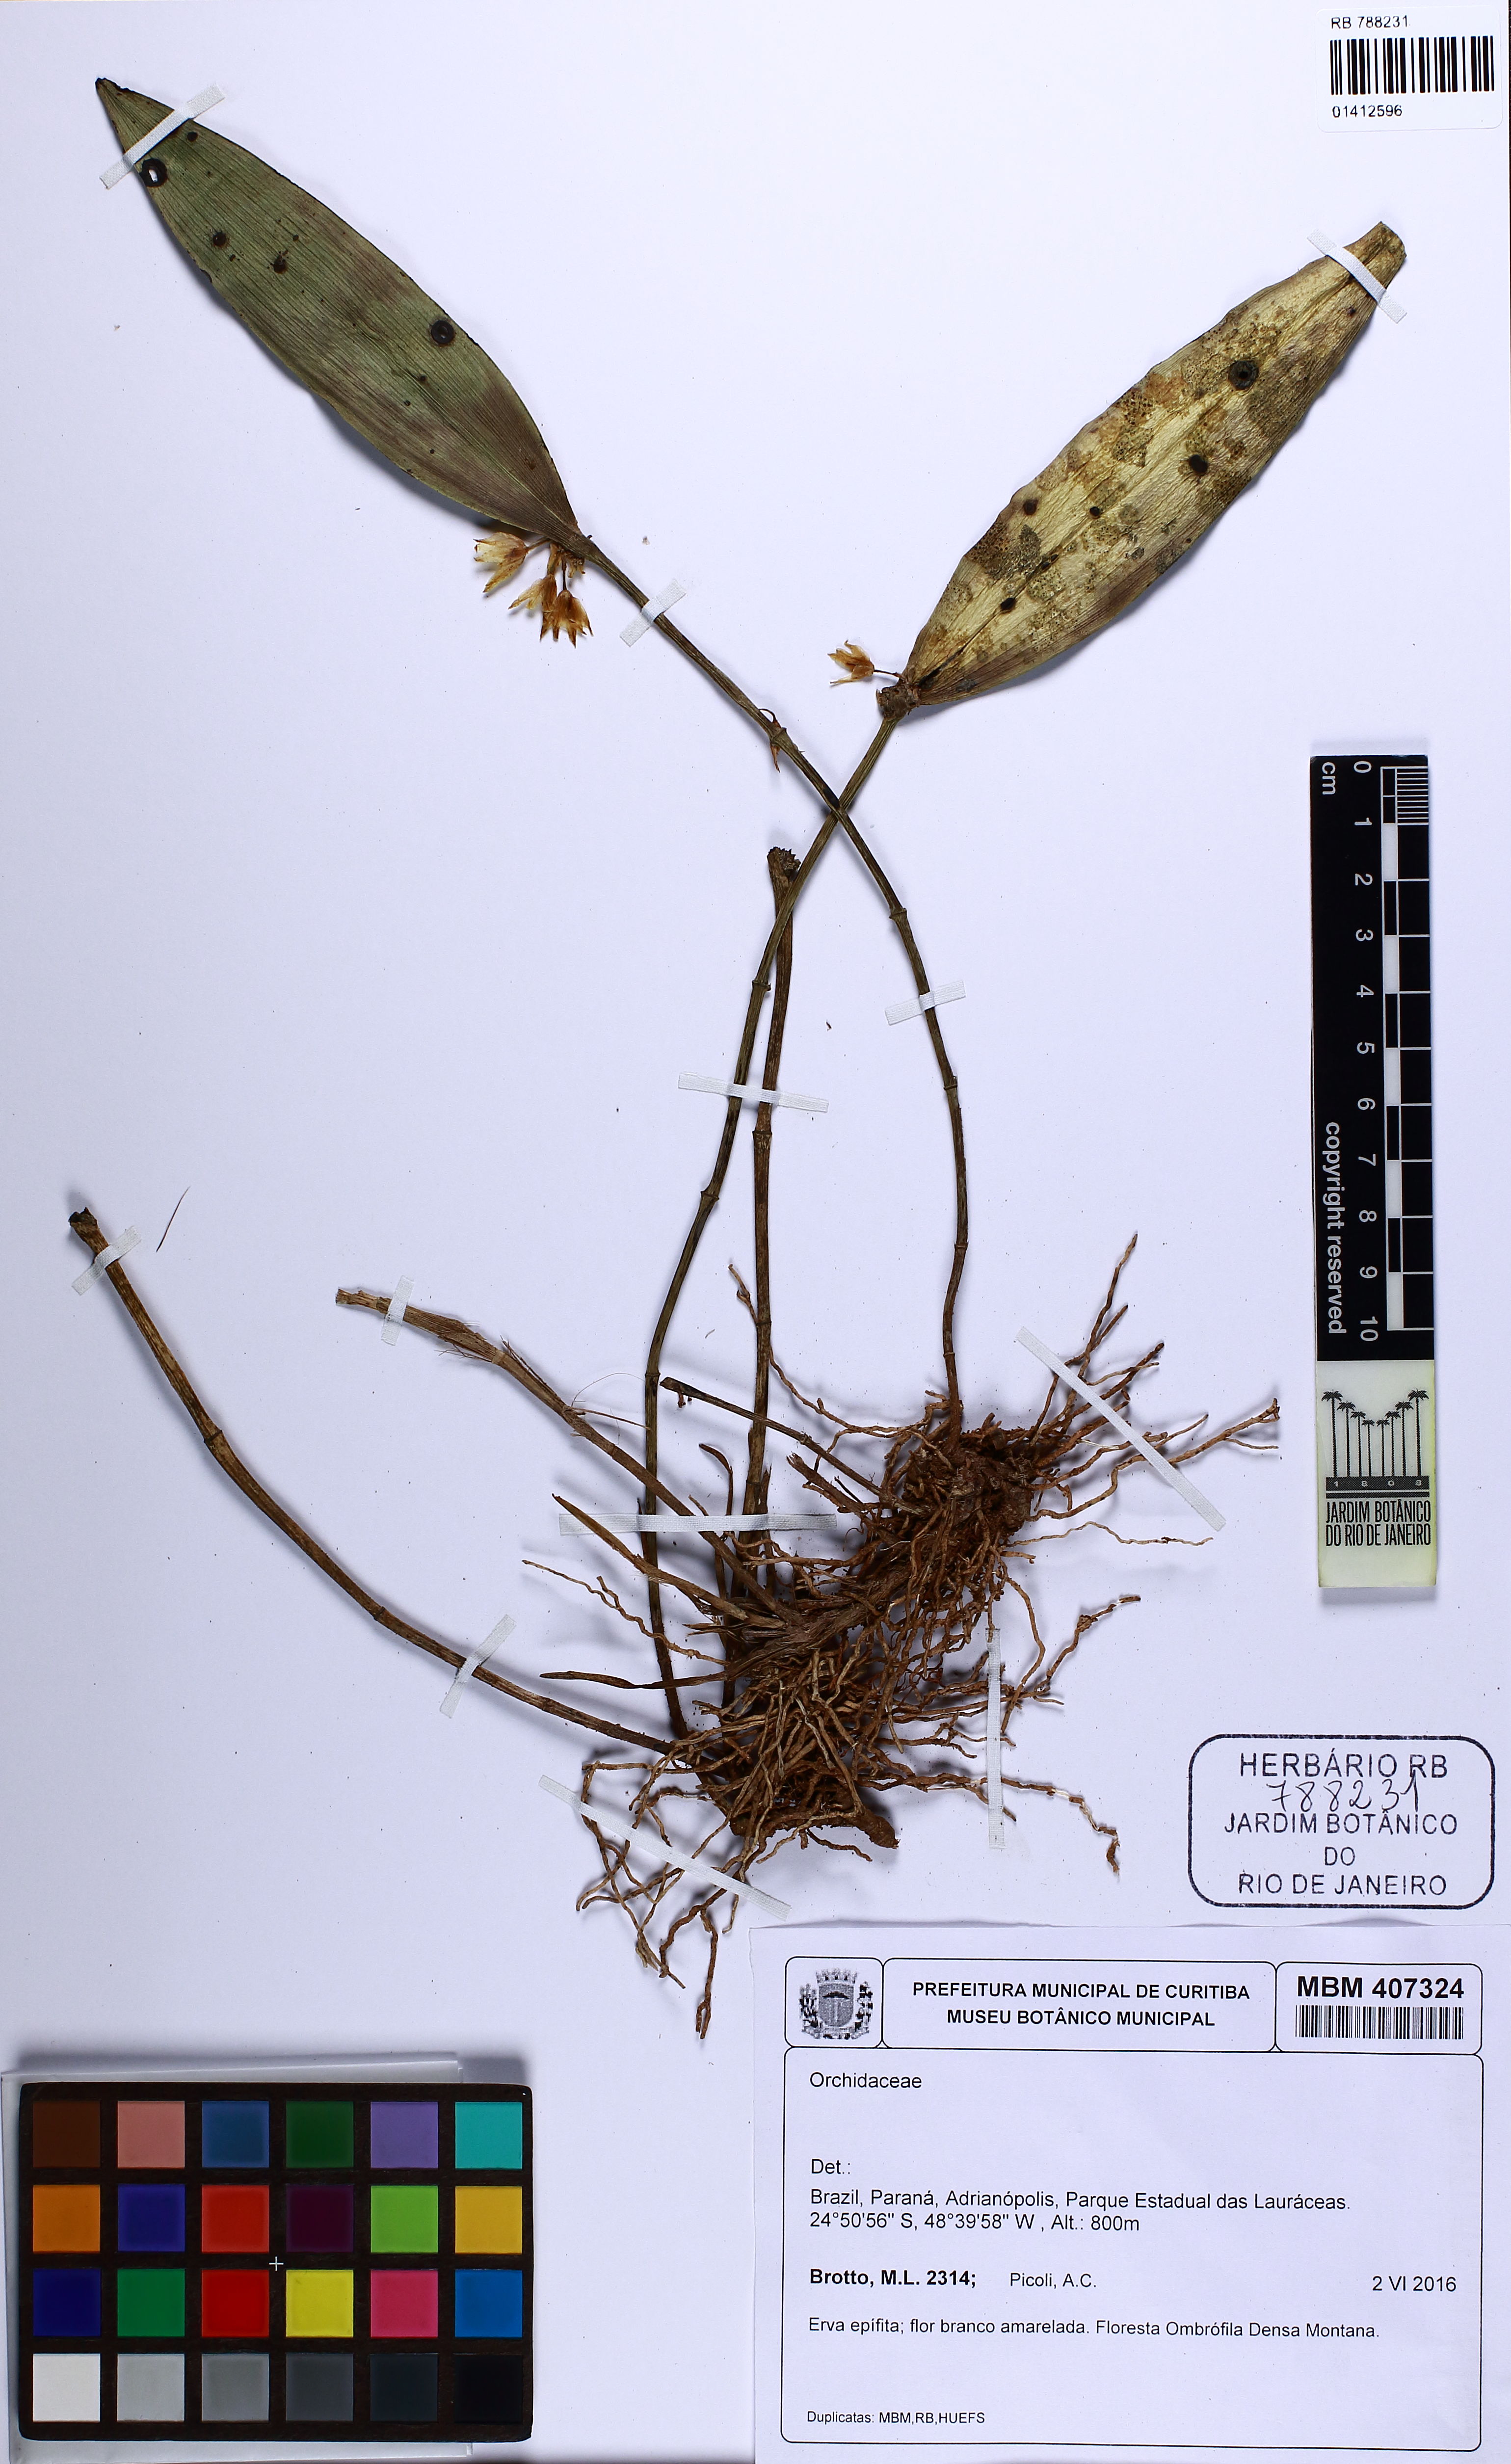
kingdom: Plantae
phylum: Tracheophyta
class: Liliopsida
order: Asparagales
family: Orchidaceae
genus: Octomeria
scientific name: Octomeria
